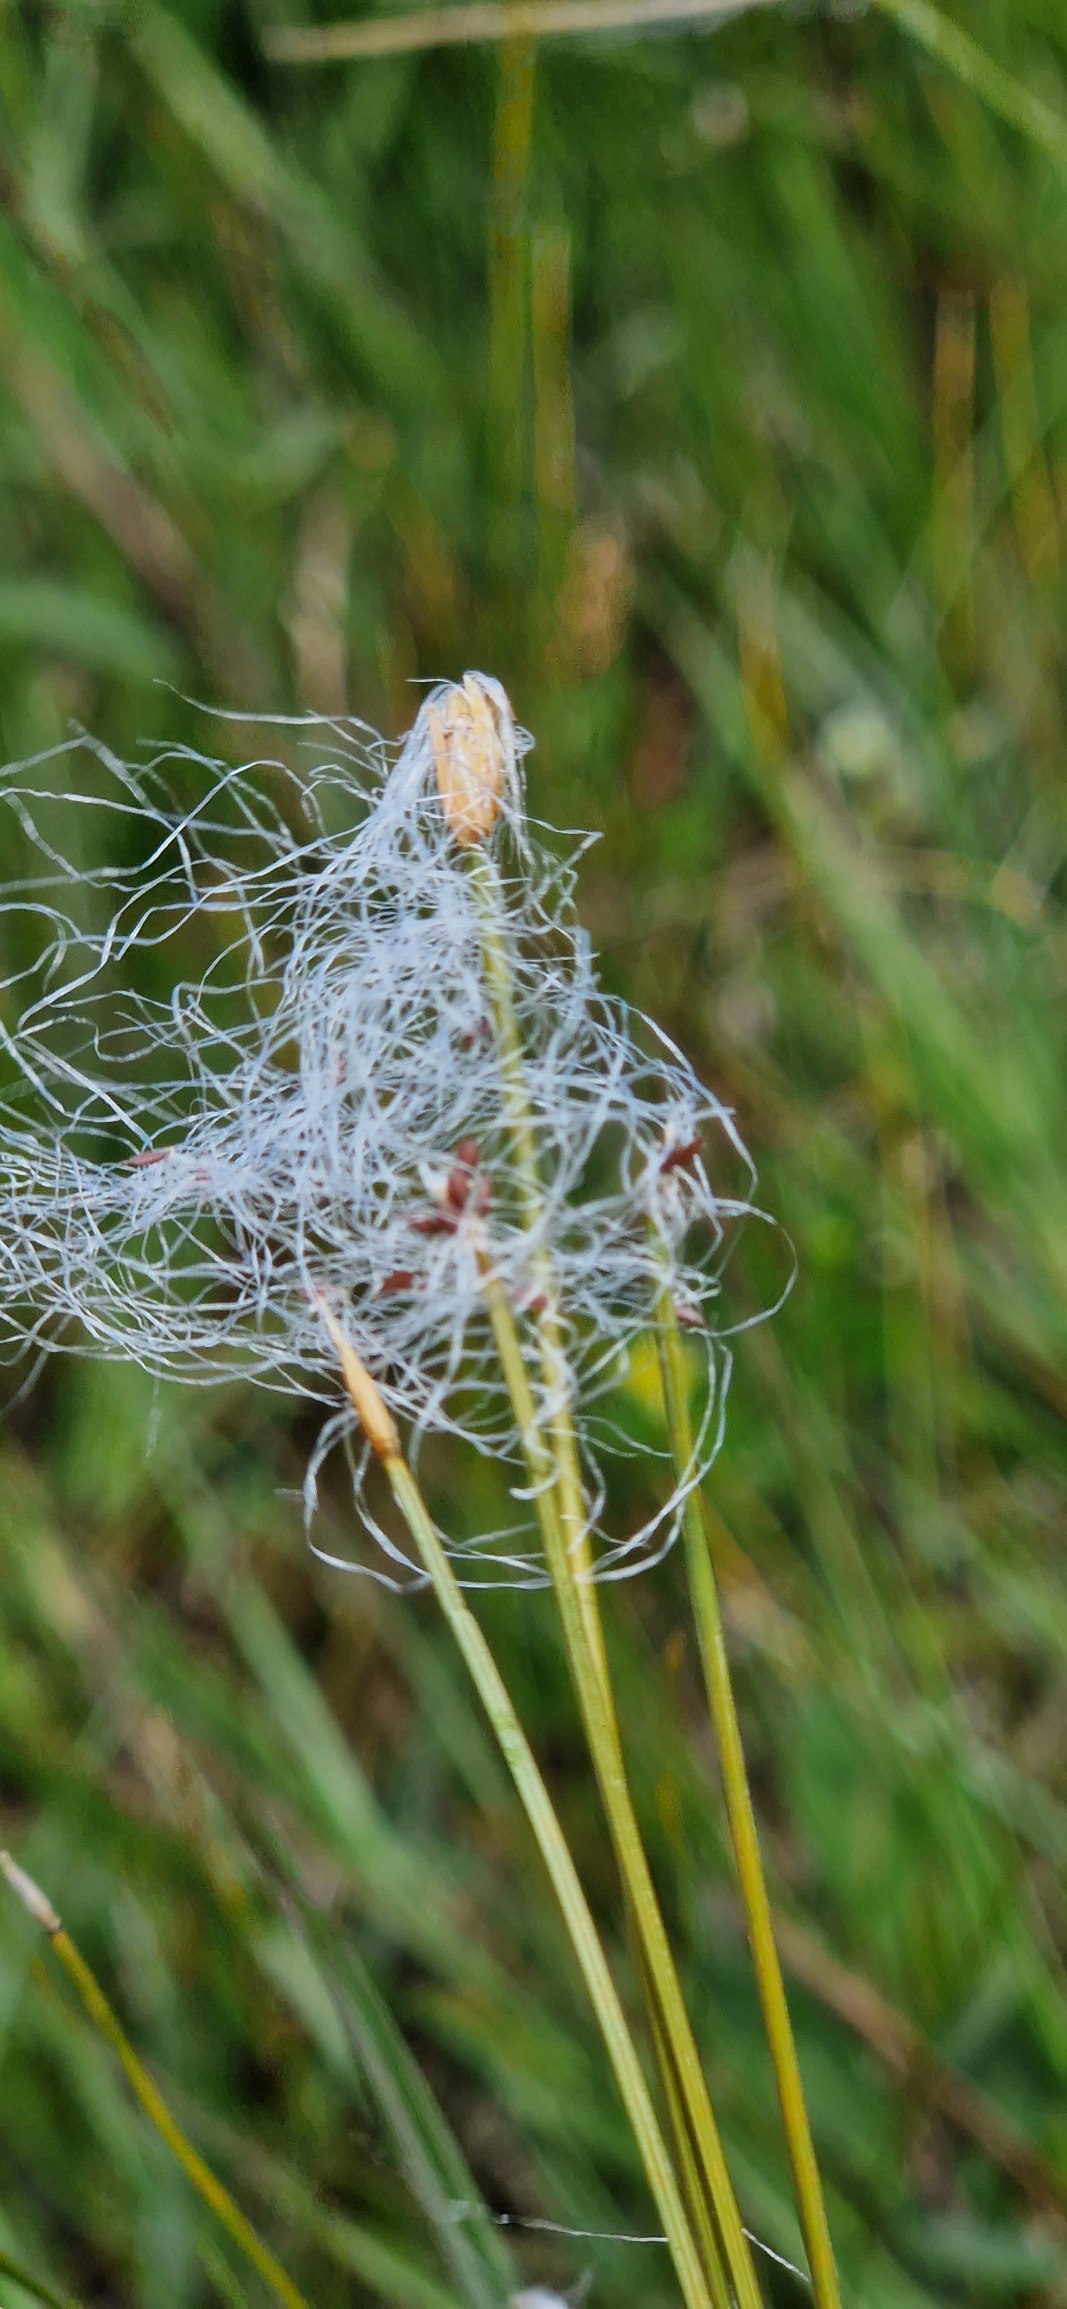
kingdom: Plantae
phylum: Tracheophyta
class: Liliopsida
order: Poales
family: Cyperaceae
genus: Trichophorum
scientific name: Trichophorum alpinum
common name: Liden kæruld
